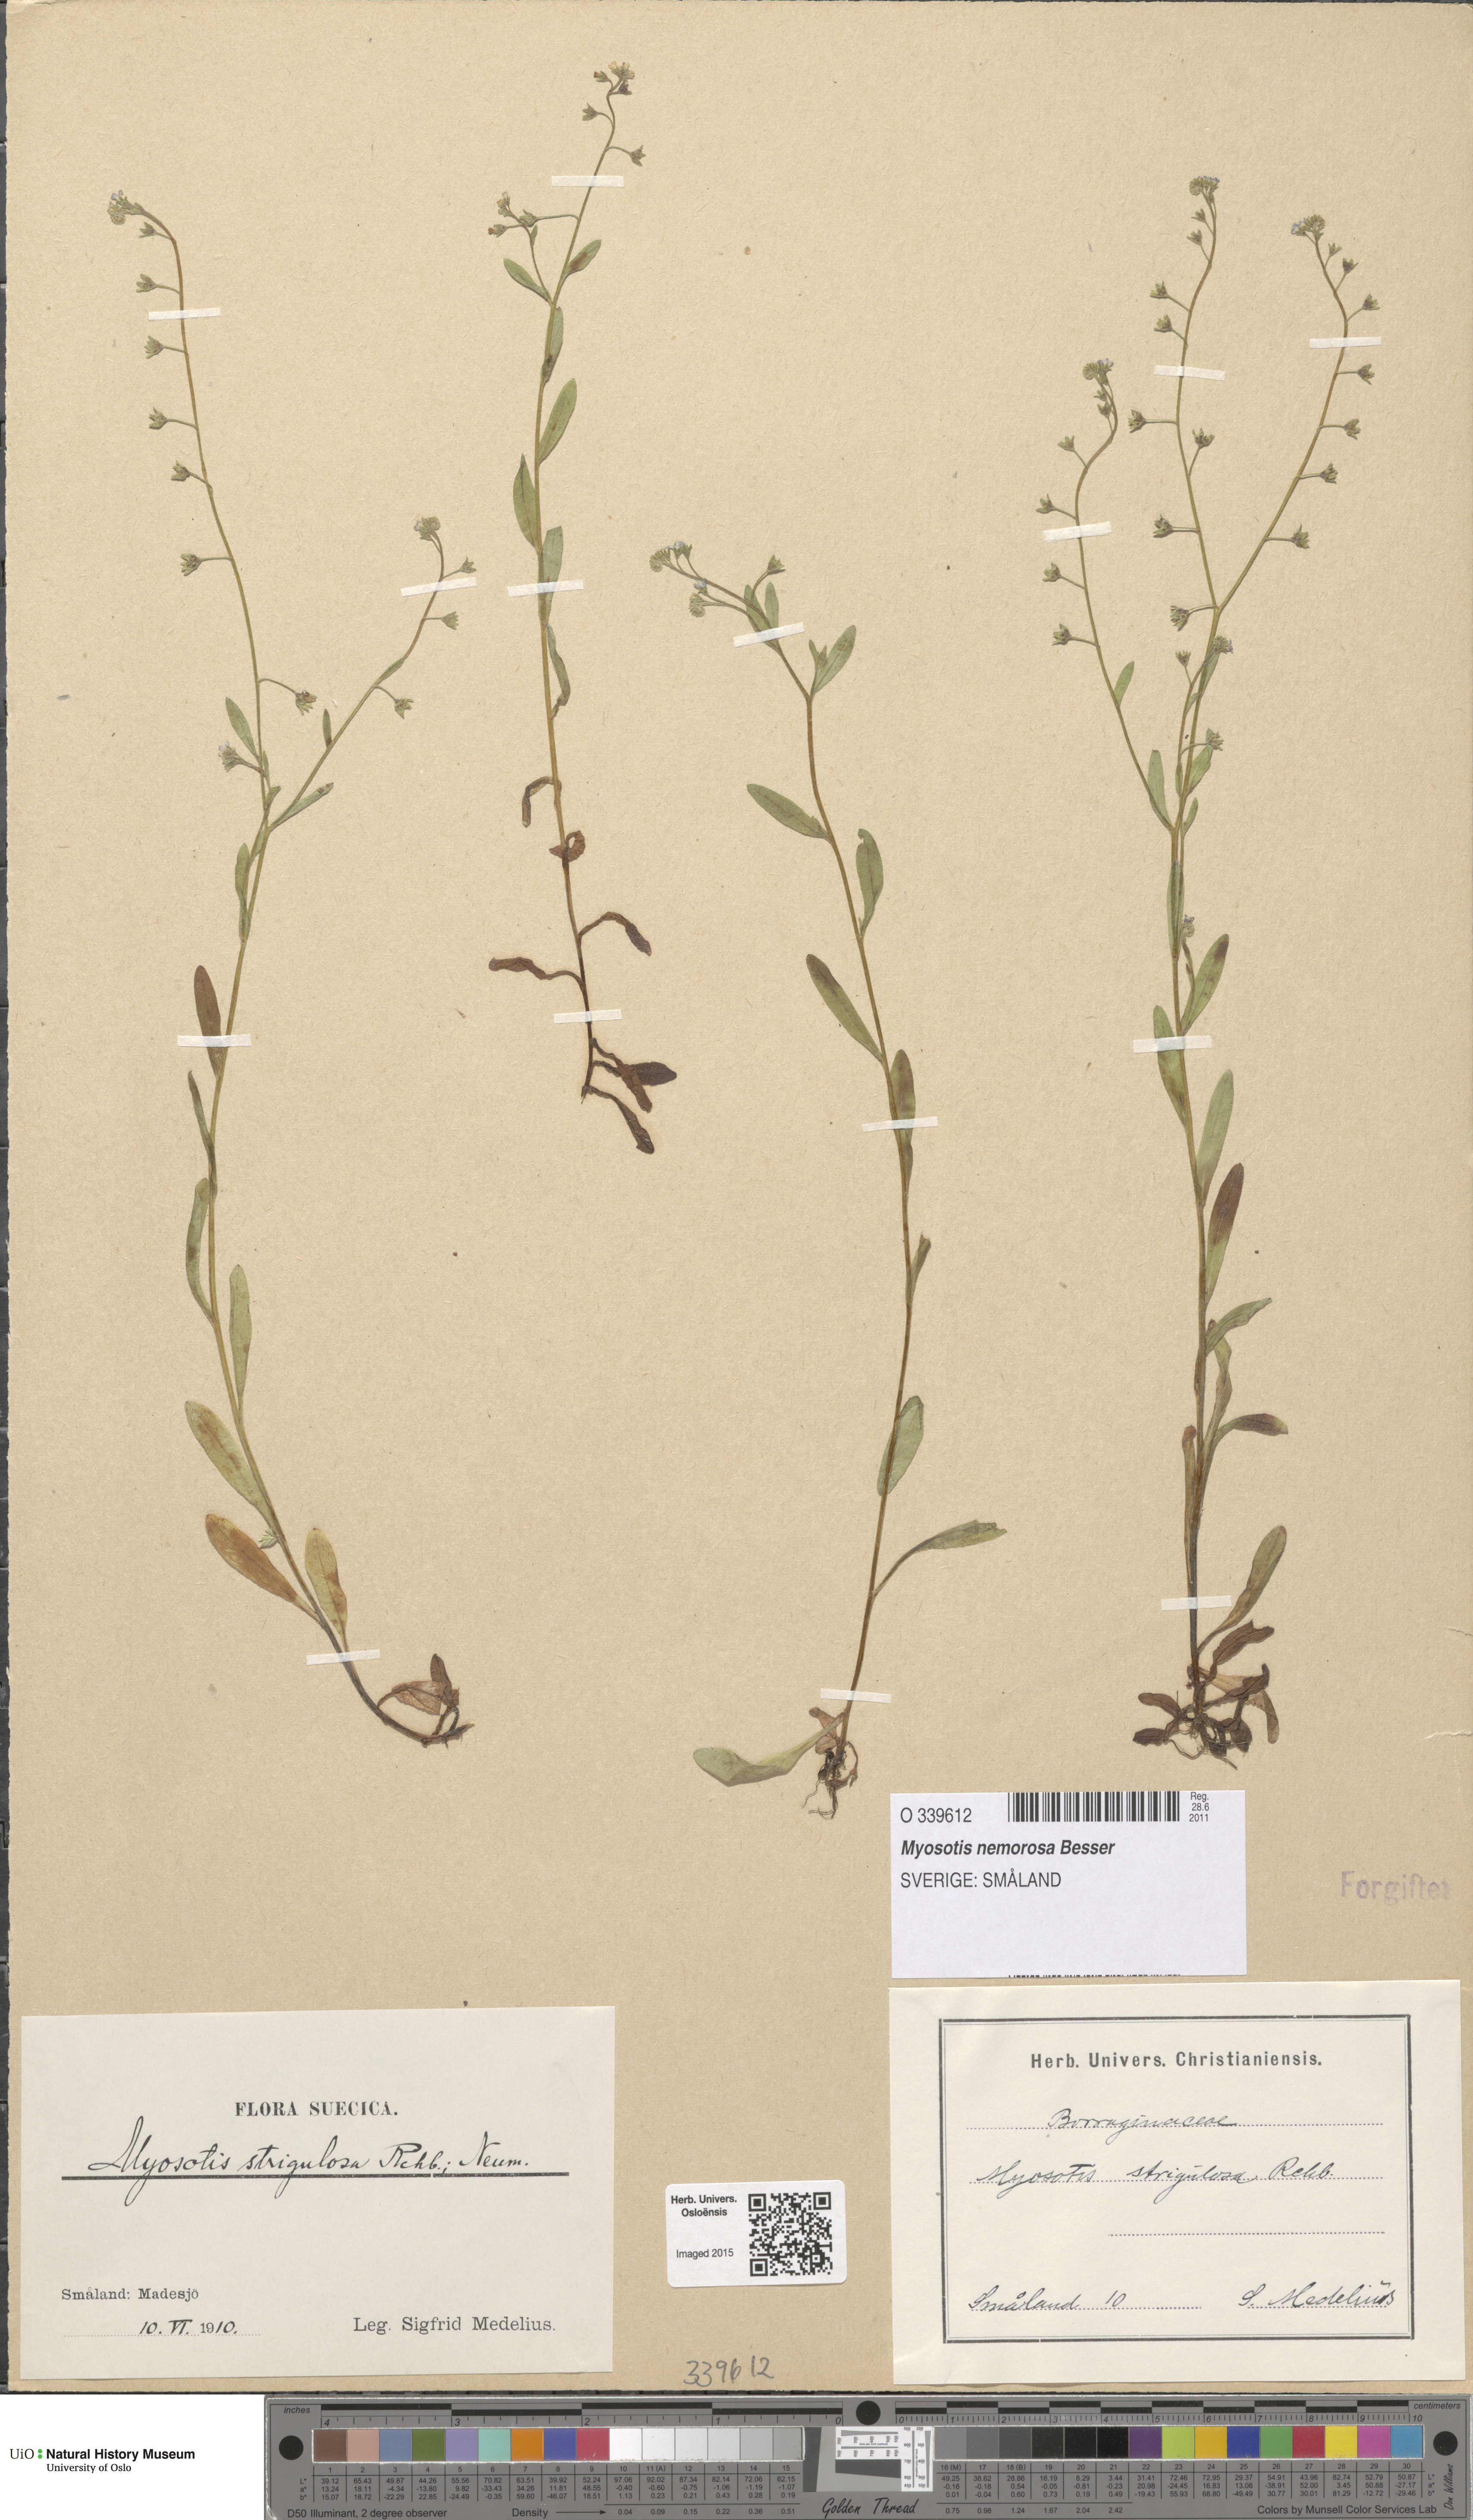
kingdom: Plantae
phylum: Tracheophyta
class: Magnoliopsida
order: Boraginales
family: Boraginaceae
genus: Myosotis
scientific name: Myosotis nemorosa
